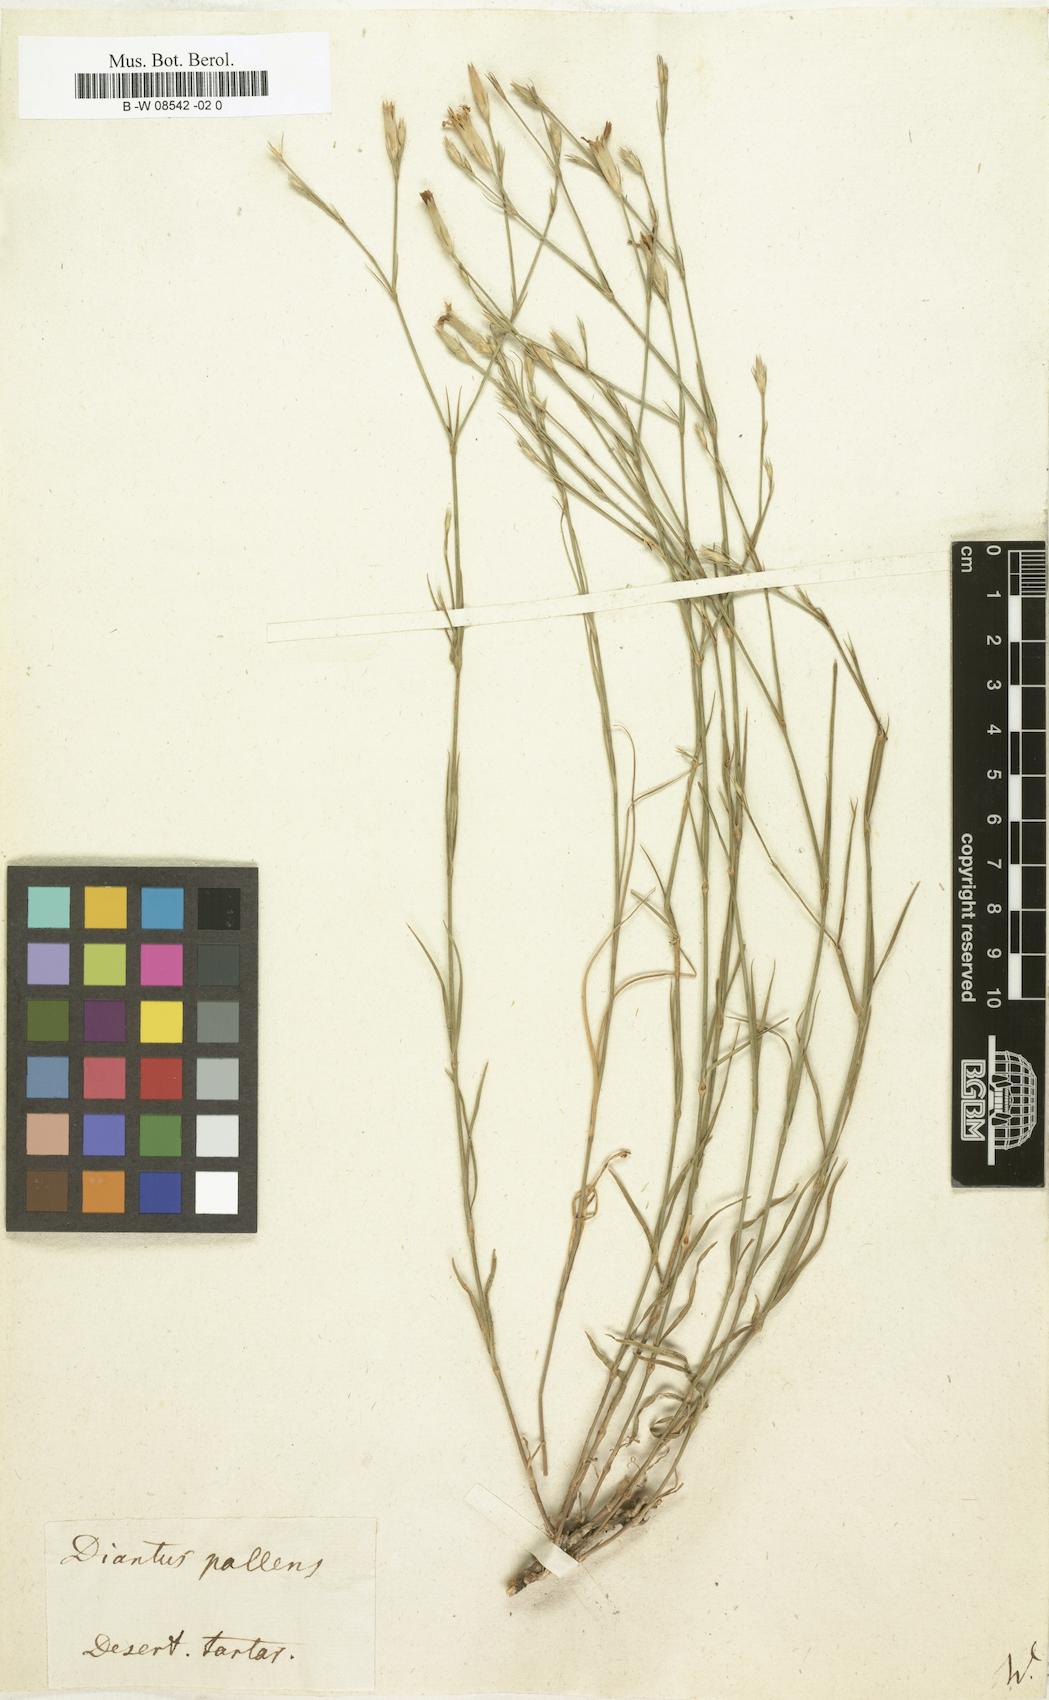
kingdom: Plantae
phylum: Tracheophyta
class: Magnoliopsida
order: Caryophyllales
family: Caryophyllaceae
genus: Dianthus
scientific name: Dianthus gratianopolitanus
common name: Cheddar pink
